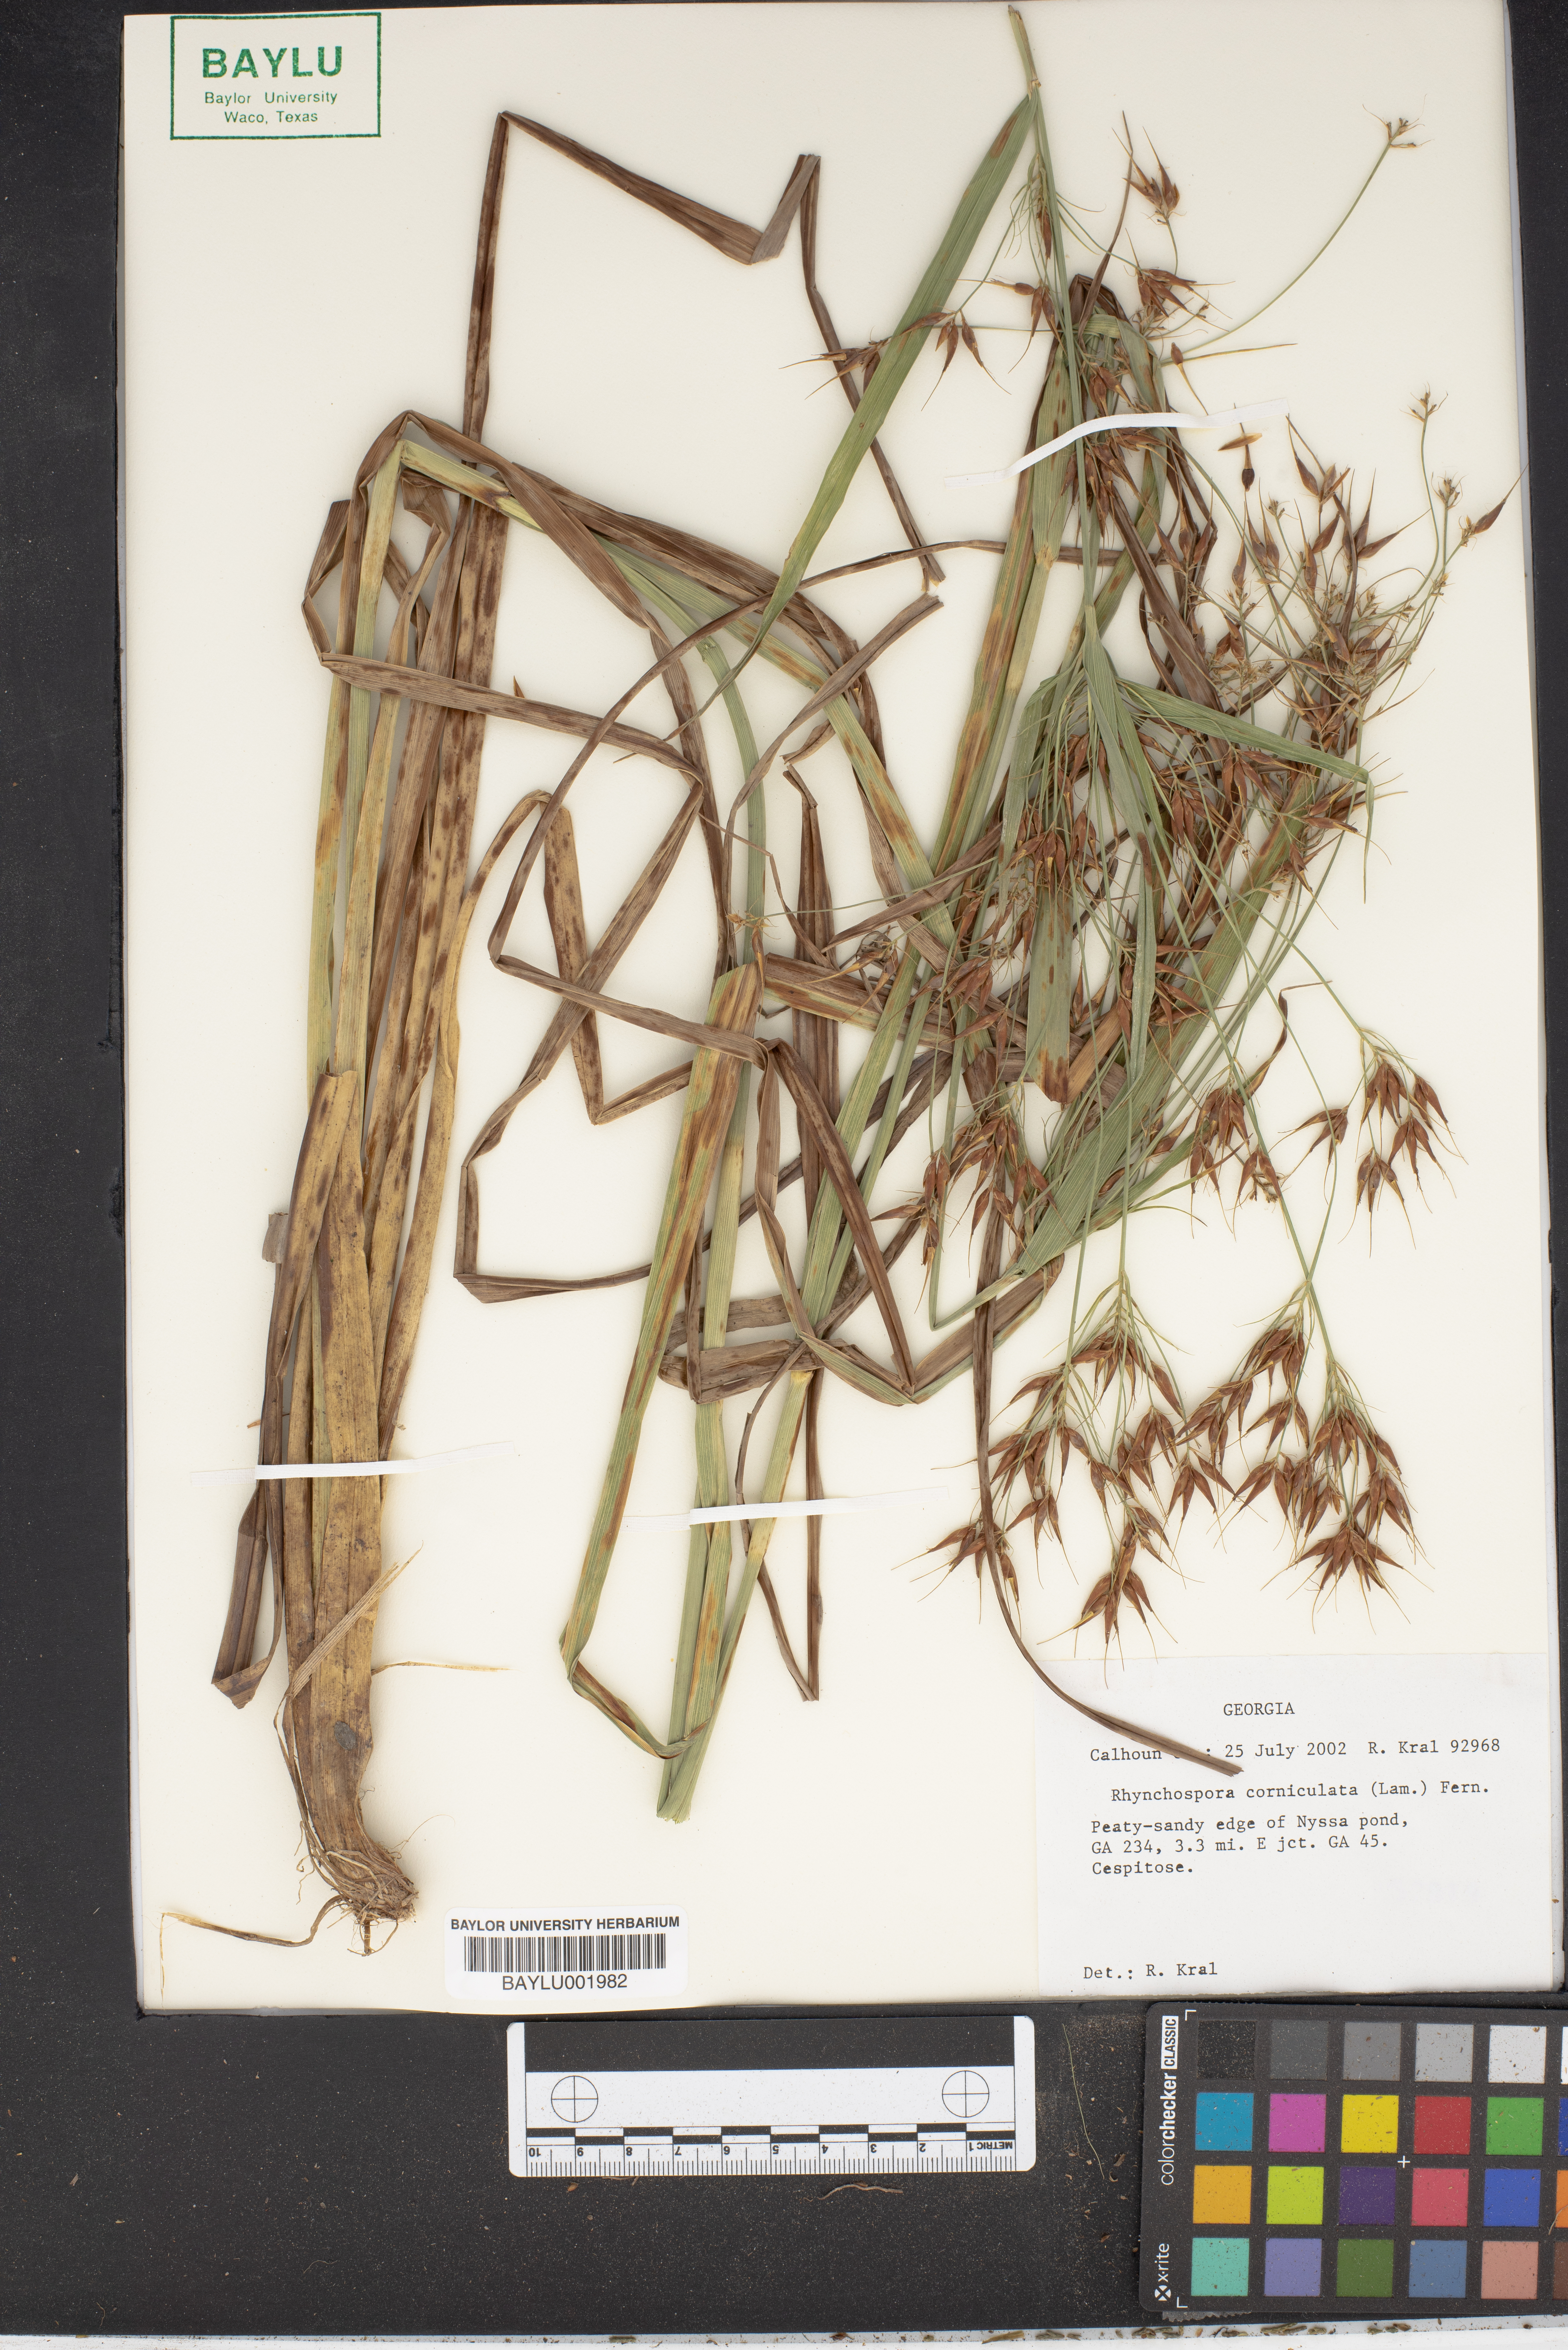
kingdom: Plantae
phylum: Tracheophyta
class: Liliopsida
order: Poales
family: Cyperaceae
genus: Rhynchospora
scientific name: Rhynchospora corniculata
